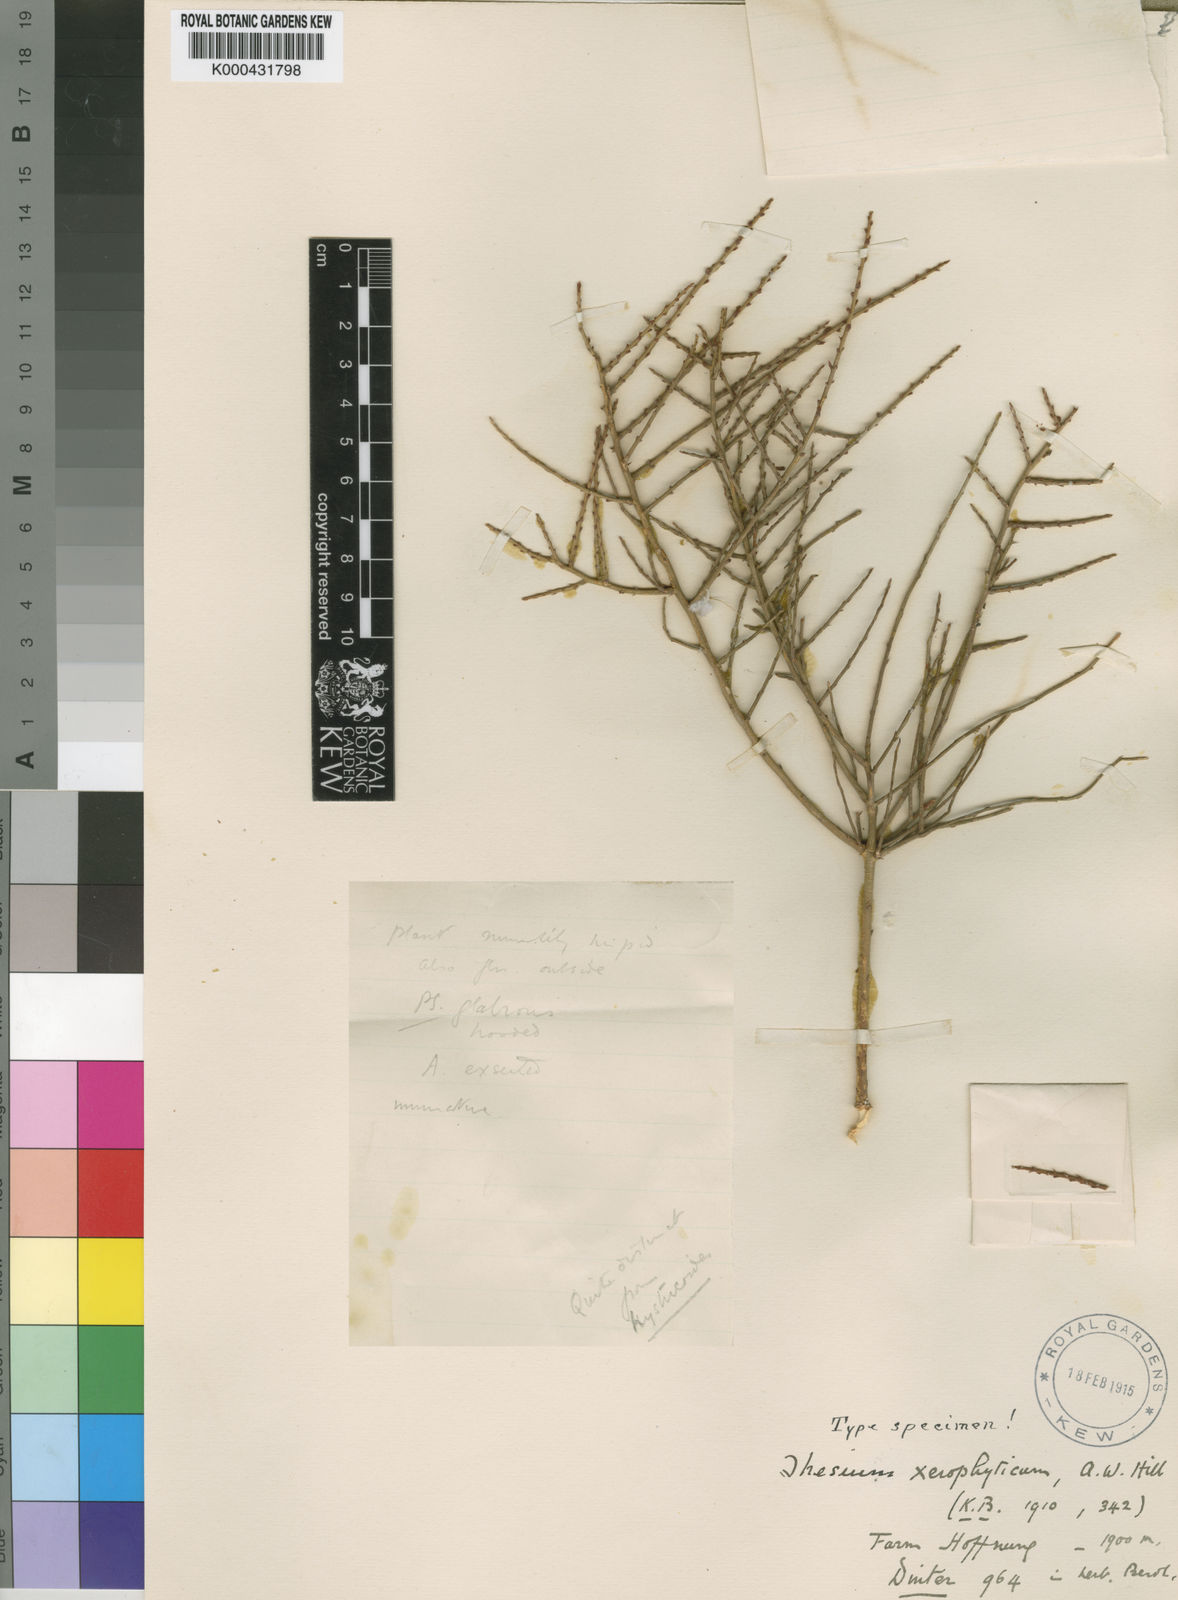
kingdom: Plantae
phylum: Tracheophyta
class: Magnoliopsida
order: Santalales
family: Thesiaceae
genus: Thesium
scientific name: Thesium xerophyticum
